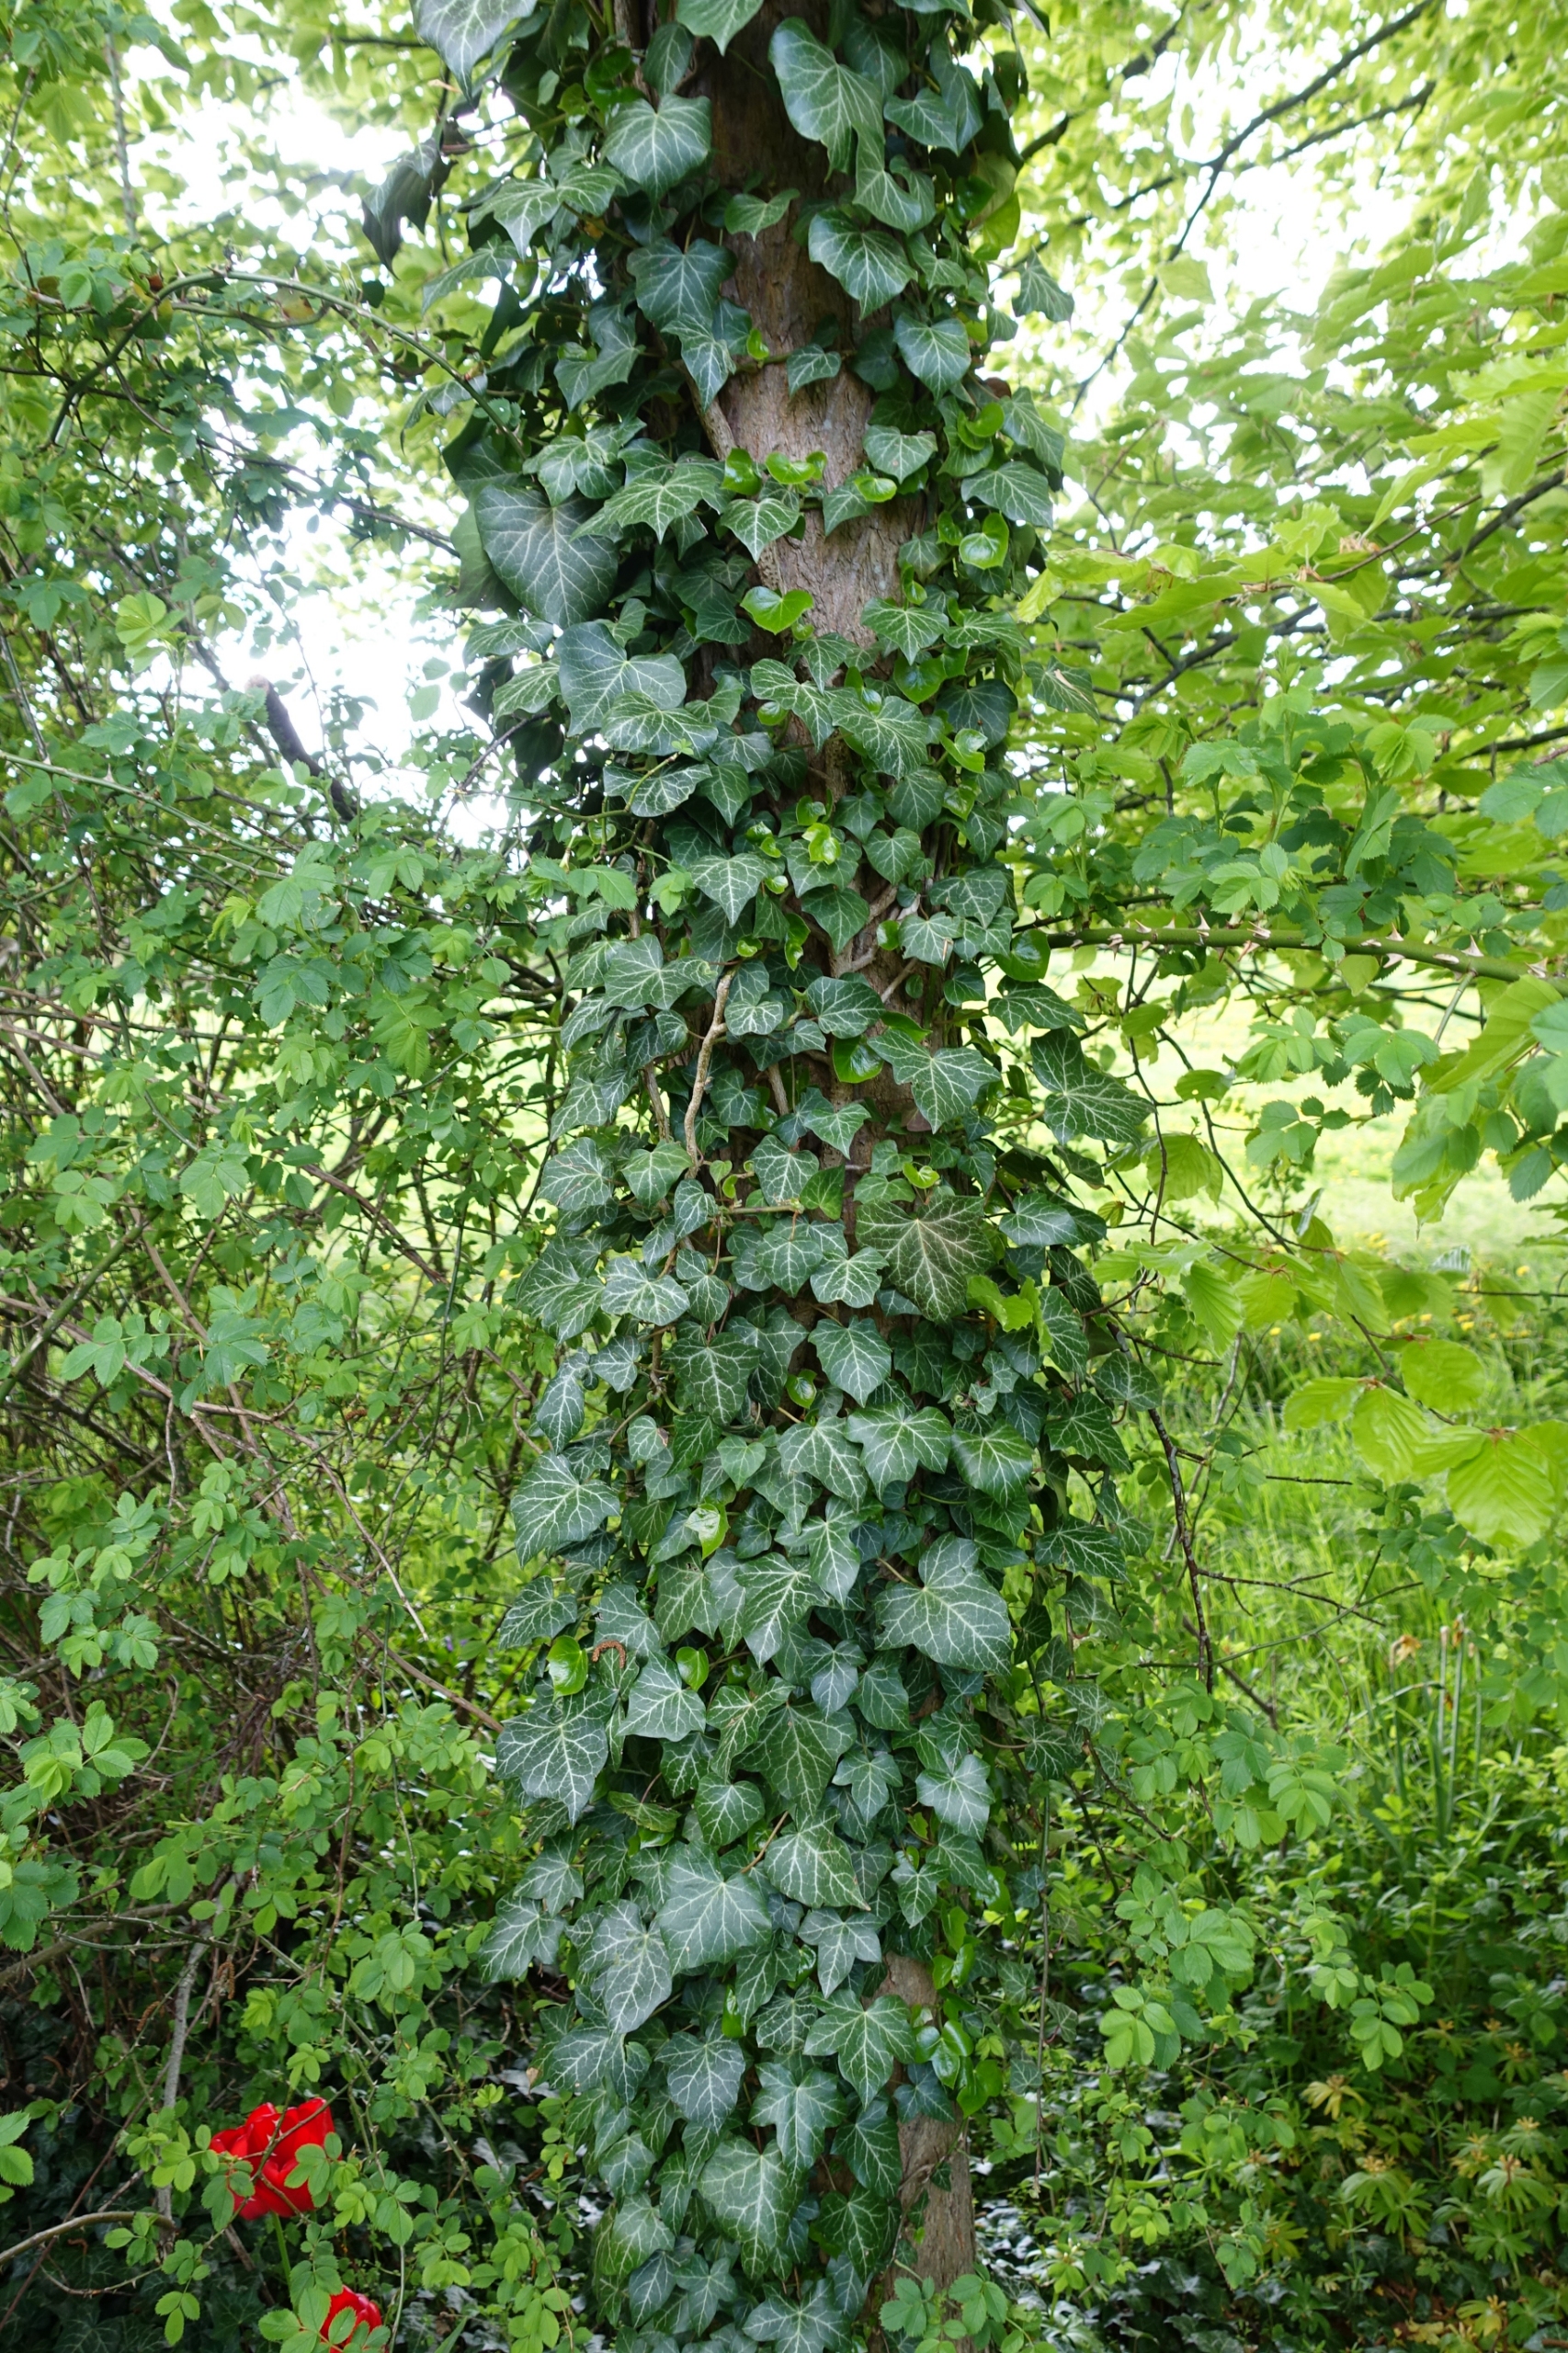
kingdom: Plantae
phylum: Tracheophyta
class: Magnoliopsida
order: Apiales
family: Araliaceae
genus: Hedera
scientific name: Hedera helix
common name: Vedbend
